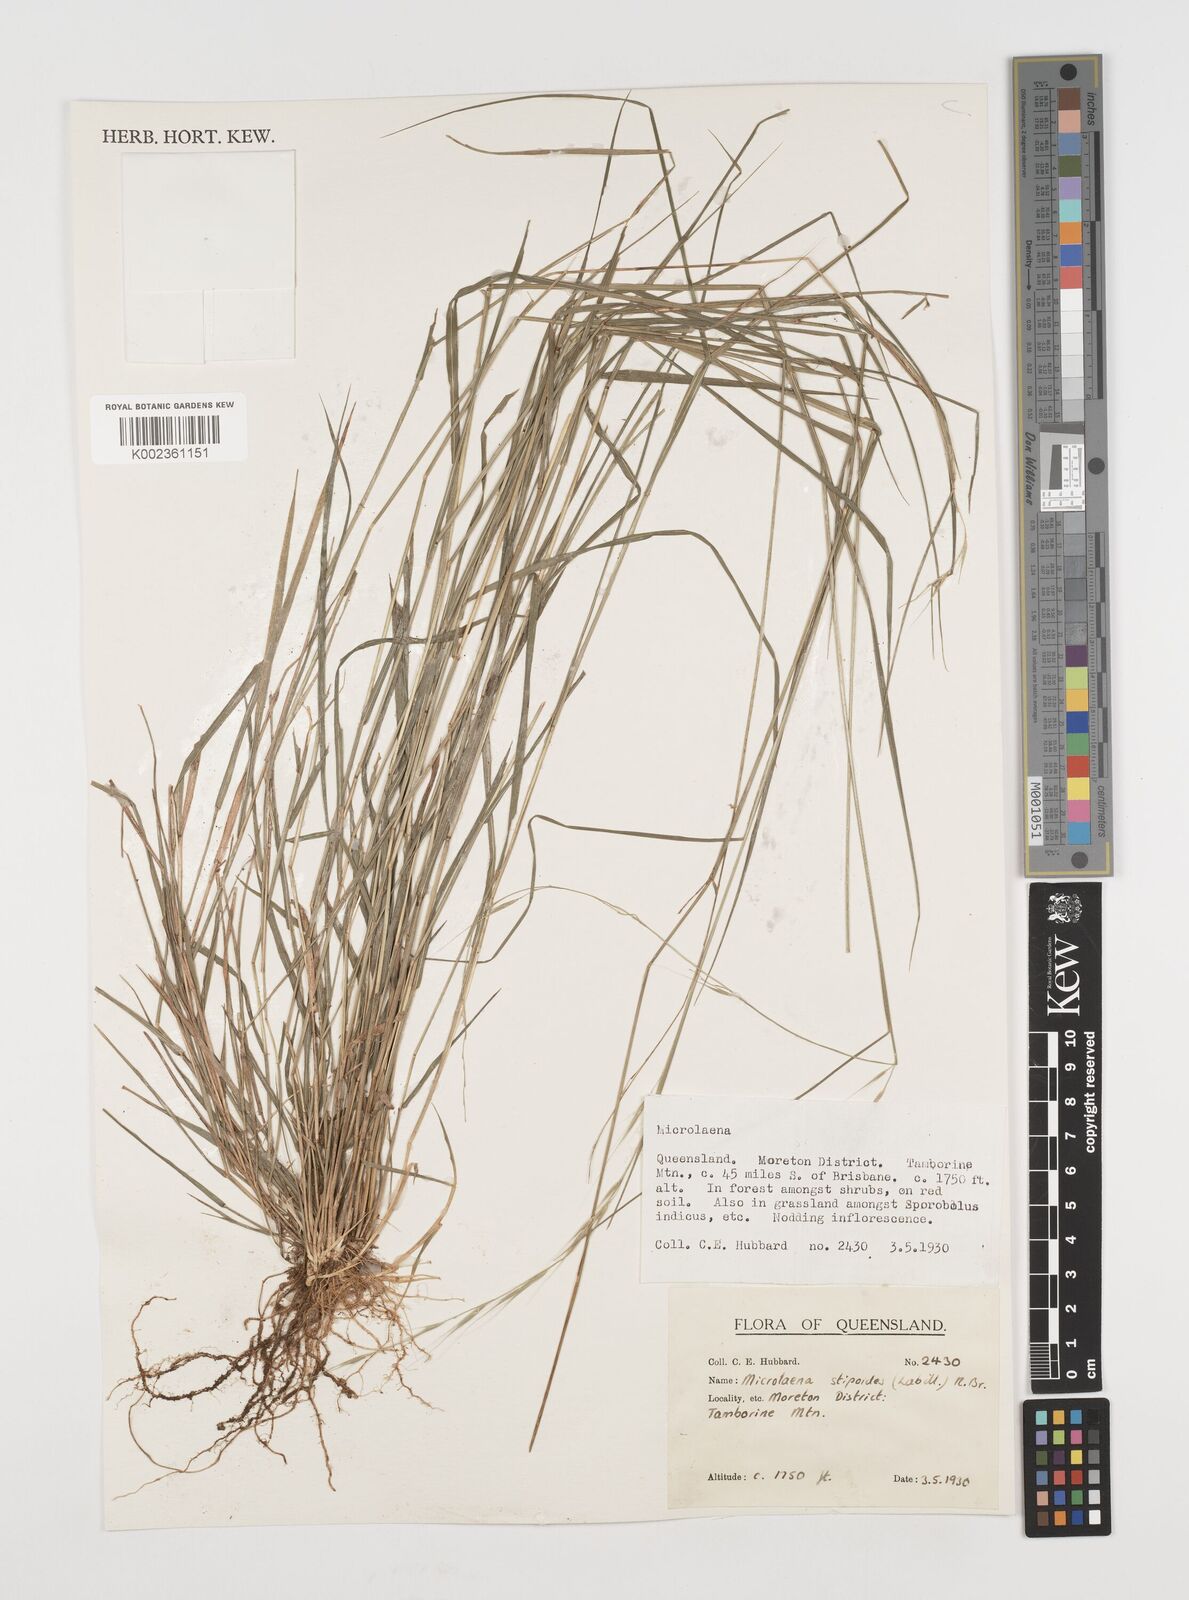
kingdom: Plantae
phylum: Tracheophyta
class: Liliopsida
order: Poales
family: Poaceae
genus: Microlaena
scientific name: Microlaena stipoides
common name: Meadow ricegrass
